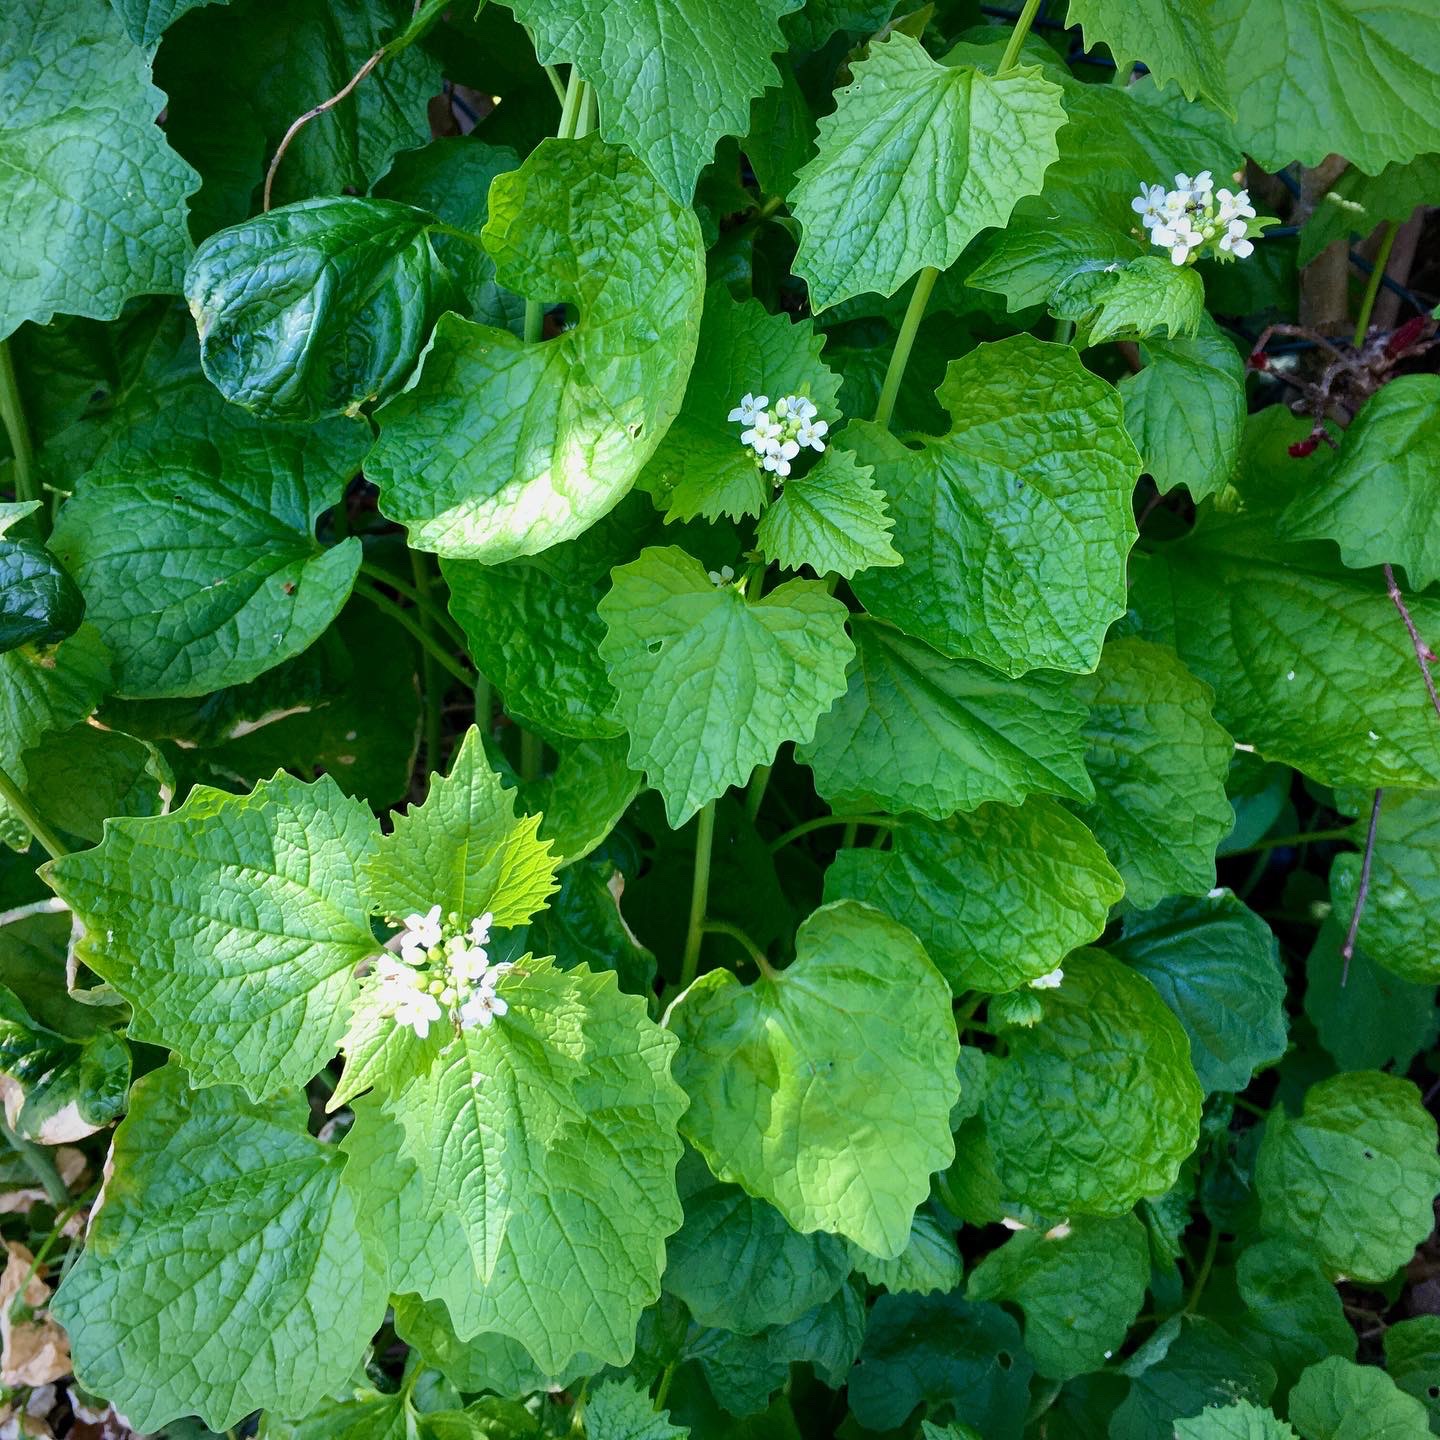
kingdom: Plantae
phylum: Tracheophyta
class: Magnoliopsida
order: Brassicales
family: Brassicaceae
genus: Alliaria
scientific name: Alliaria petiolata
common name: Løgkarse
